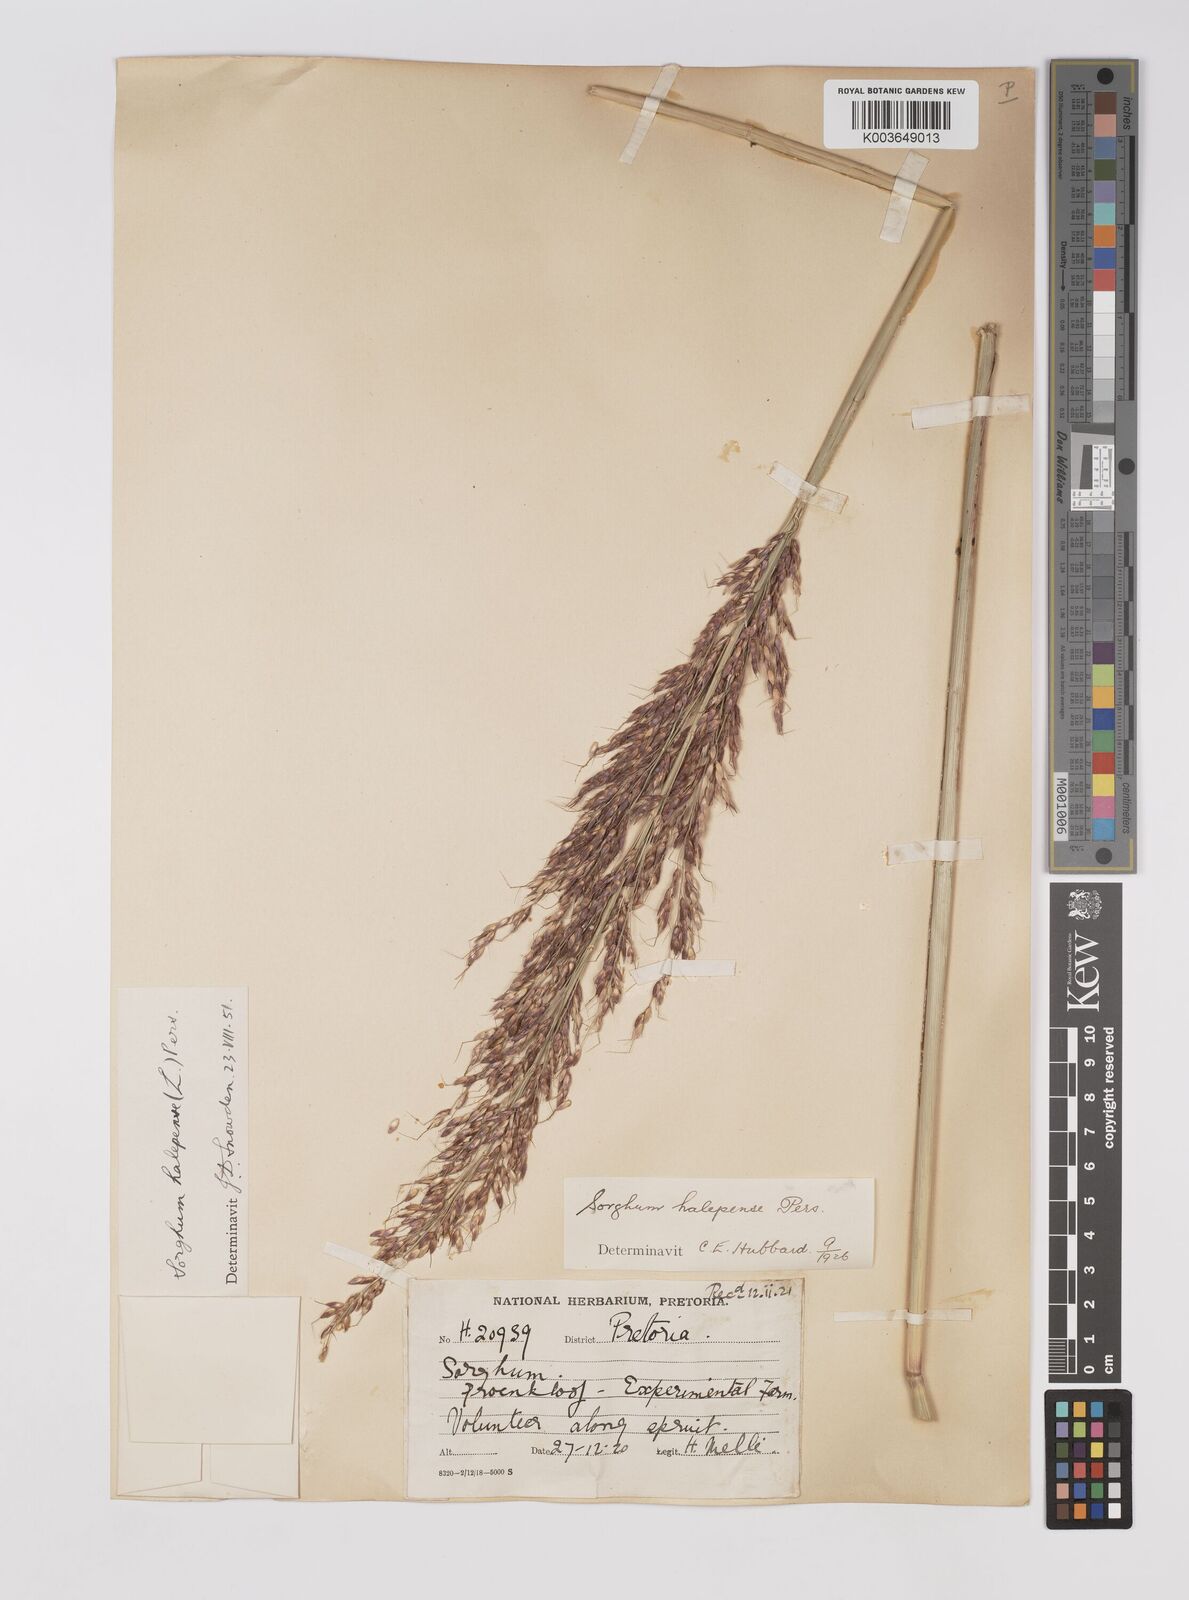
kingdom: Plantae
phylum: Tracheophyta
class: Liliopsida
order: Poales
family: Poaceae
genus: Sorghum
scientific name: Sorghum halepense
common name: Johnson-grass
